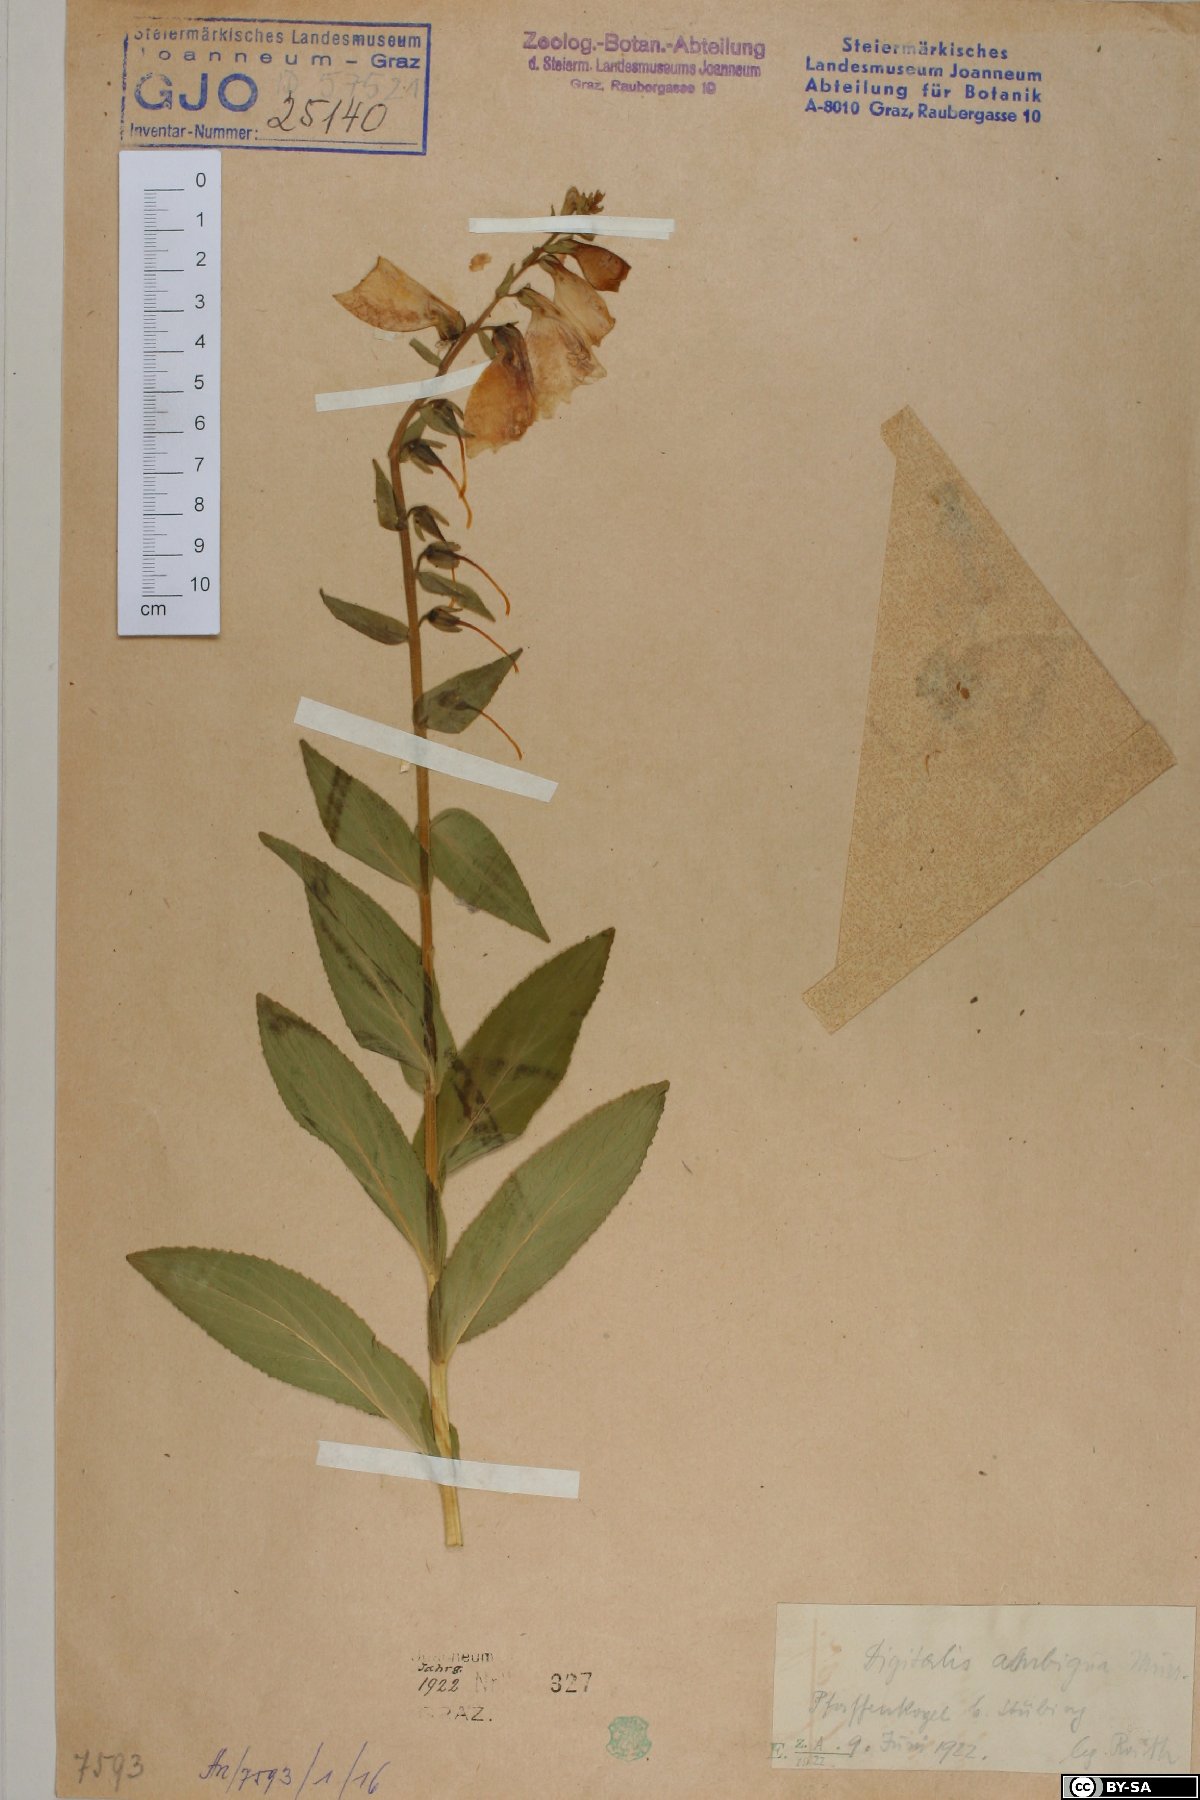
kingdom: Plantae
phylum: Tracheophyta
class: Magnoliopsida
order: Lamiales
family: Plantaginaceae
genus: Digitalis
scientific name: Digitalis grandiflora
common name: Yellow foxglove
